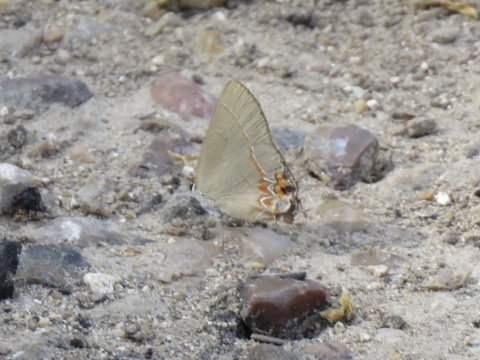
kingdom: Animalia
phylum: Arthropoda
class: Insecta
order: Lepidoptera
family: Lycaenidae
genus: Calycopis
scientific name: Calycopis isobeon
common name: Dusky-blue Groundstreak
